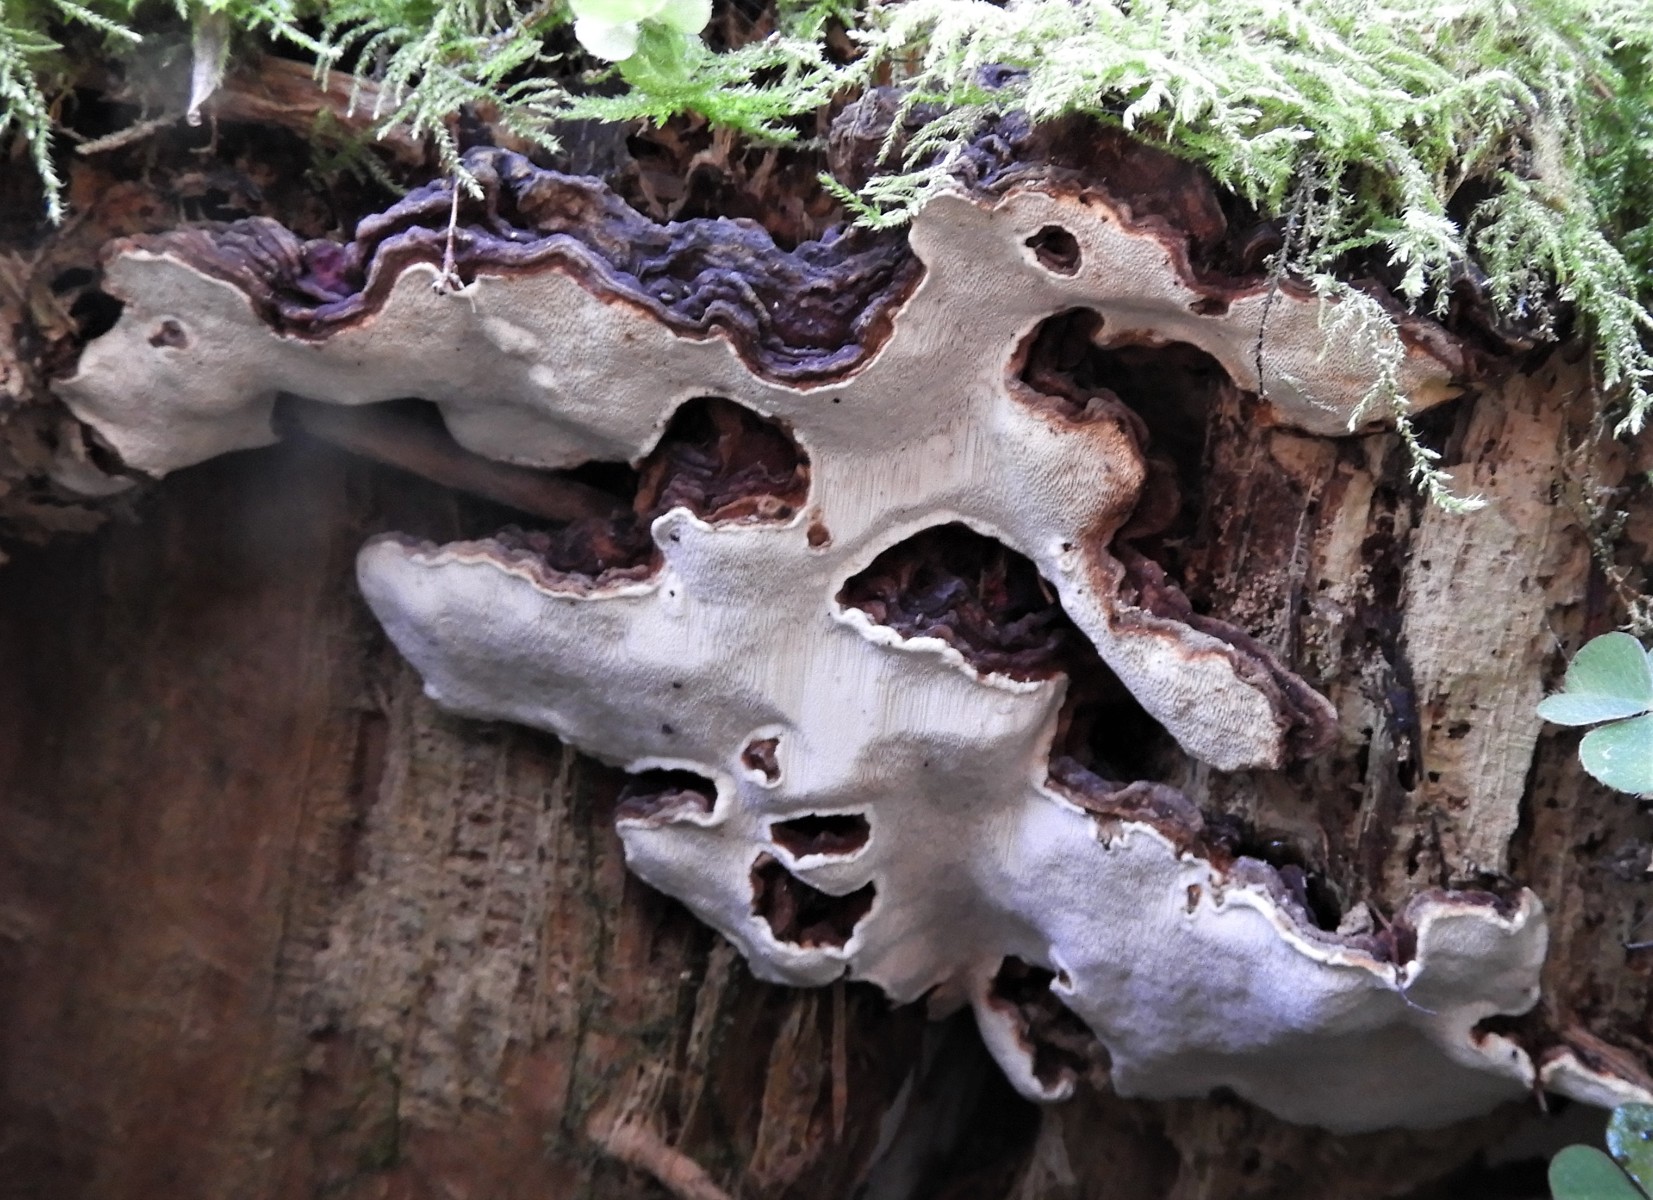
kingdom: Fungi
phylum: Basidiomycota
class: Agaricomycetes
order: Russulales
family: Bondarzewiaceae
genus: Heterobasidion
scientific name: Heterobasidion annosum
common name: almindelig rodfordærver
